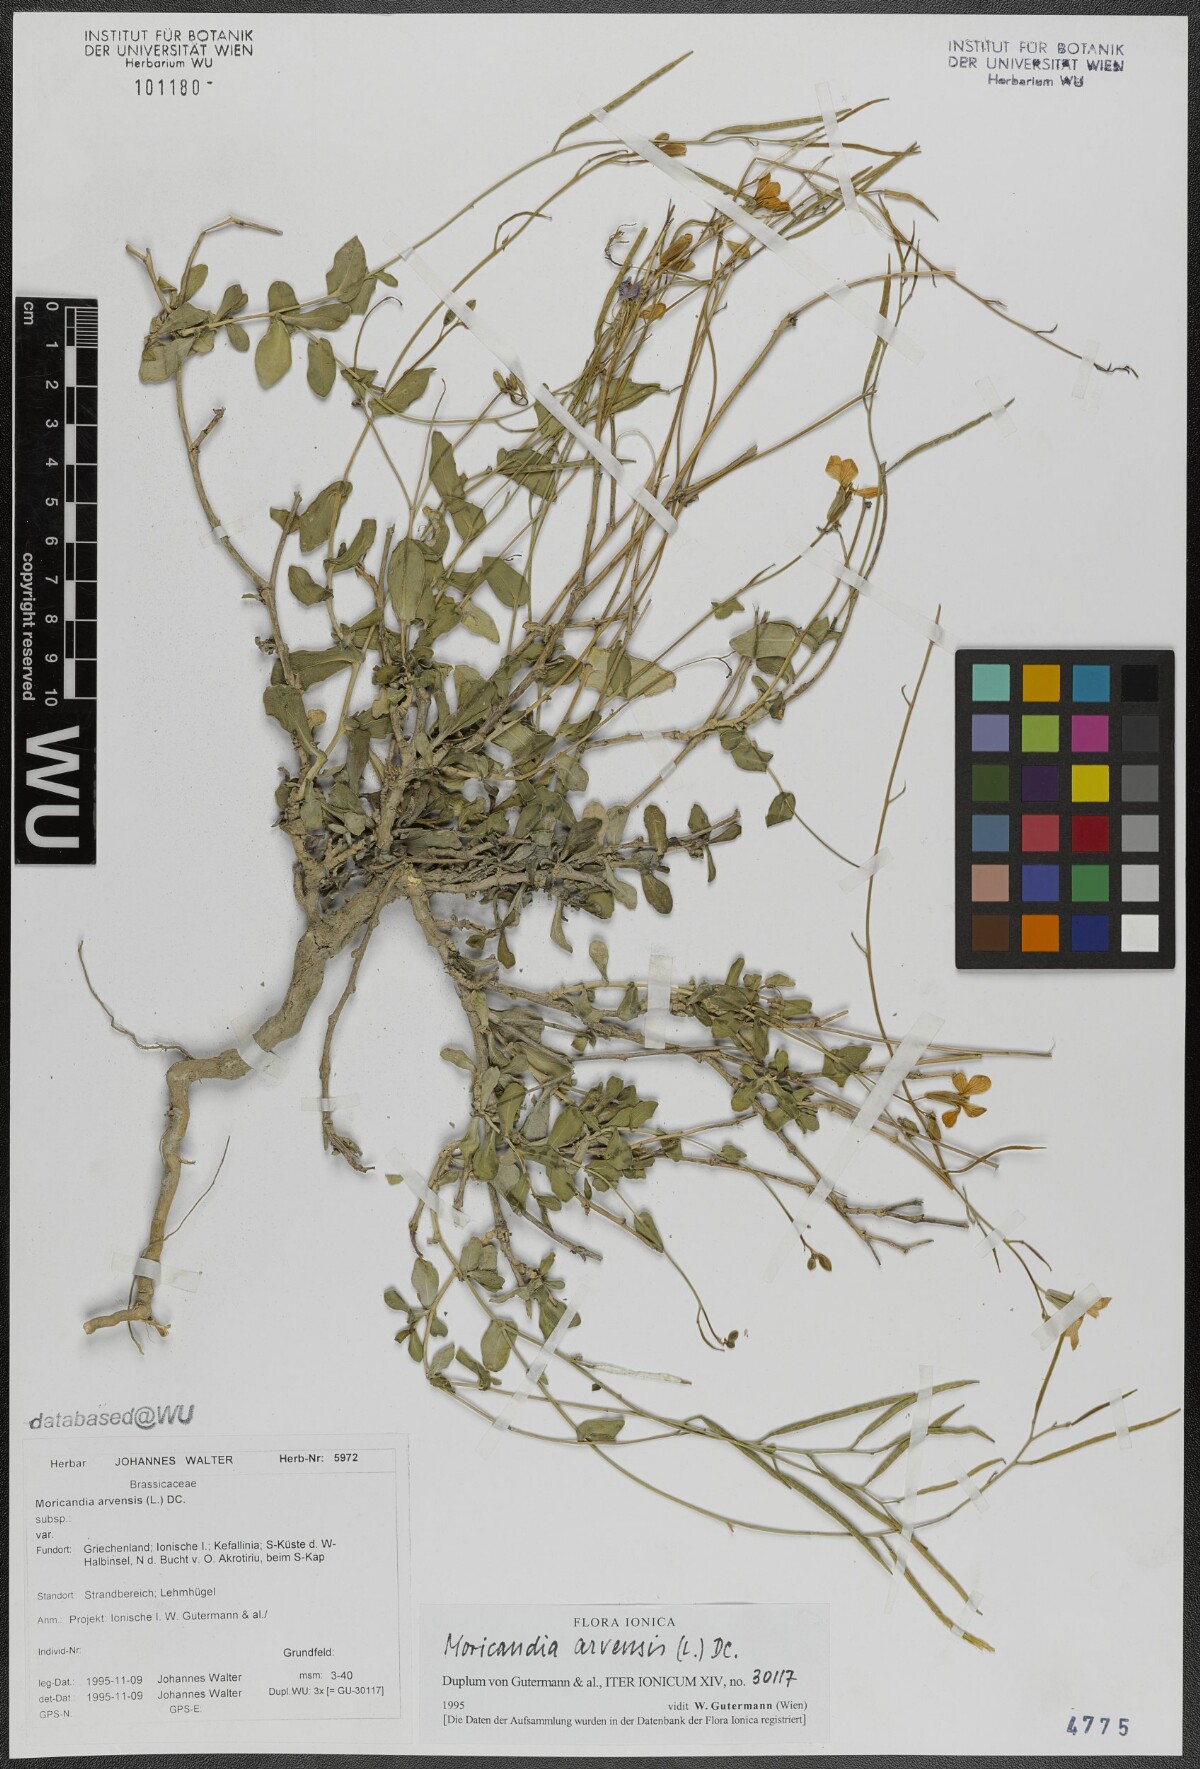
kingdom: Plantae
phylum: Tracheophyta
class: Magnoliopsida
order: Brassicales
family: Brassicaceae
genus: Moricandia
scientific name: Moricandia arvensis
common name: Purple mistress
